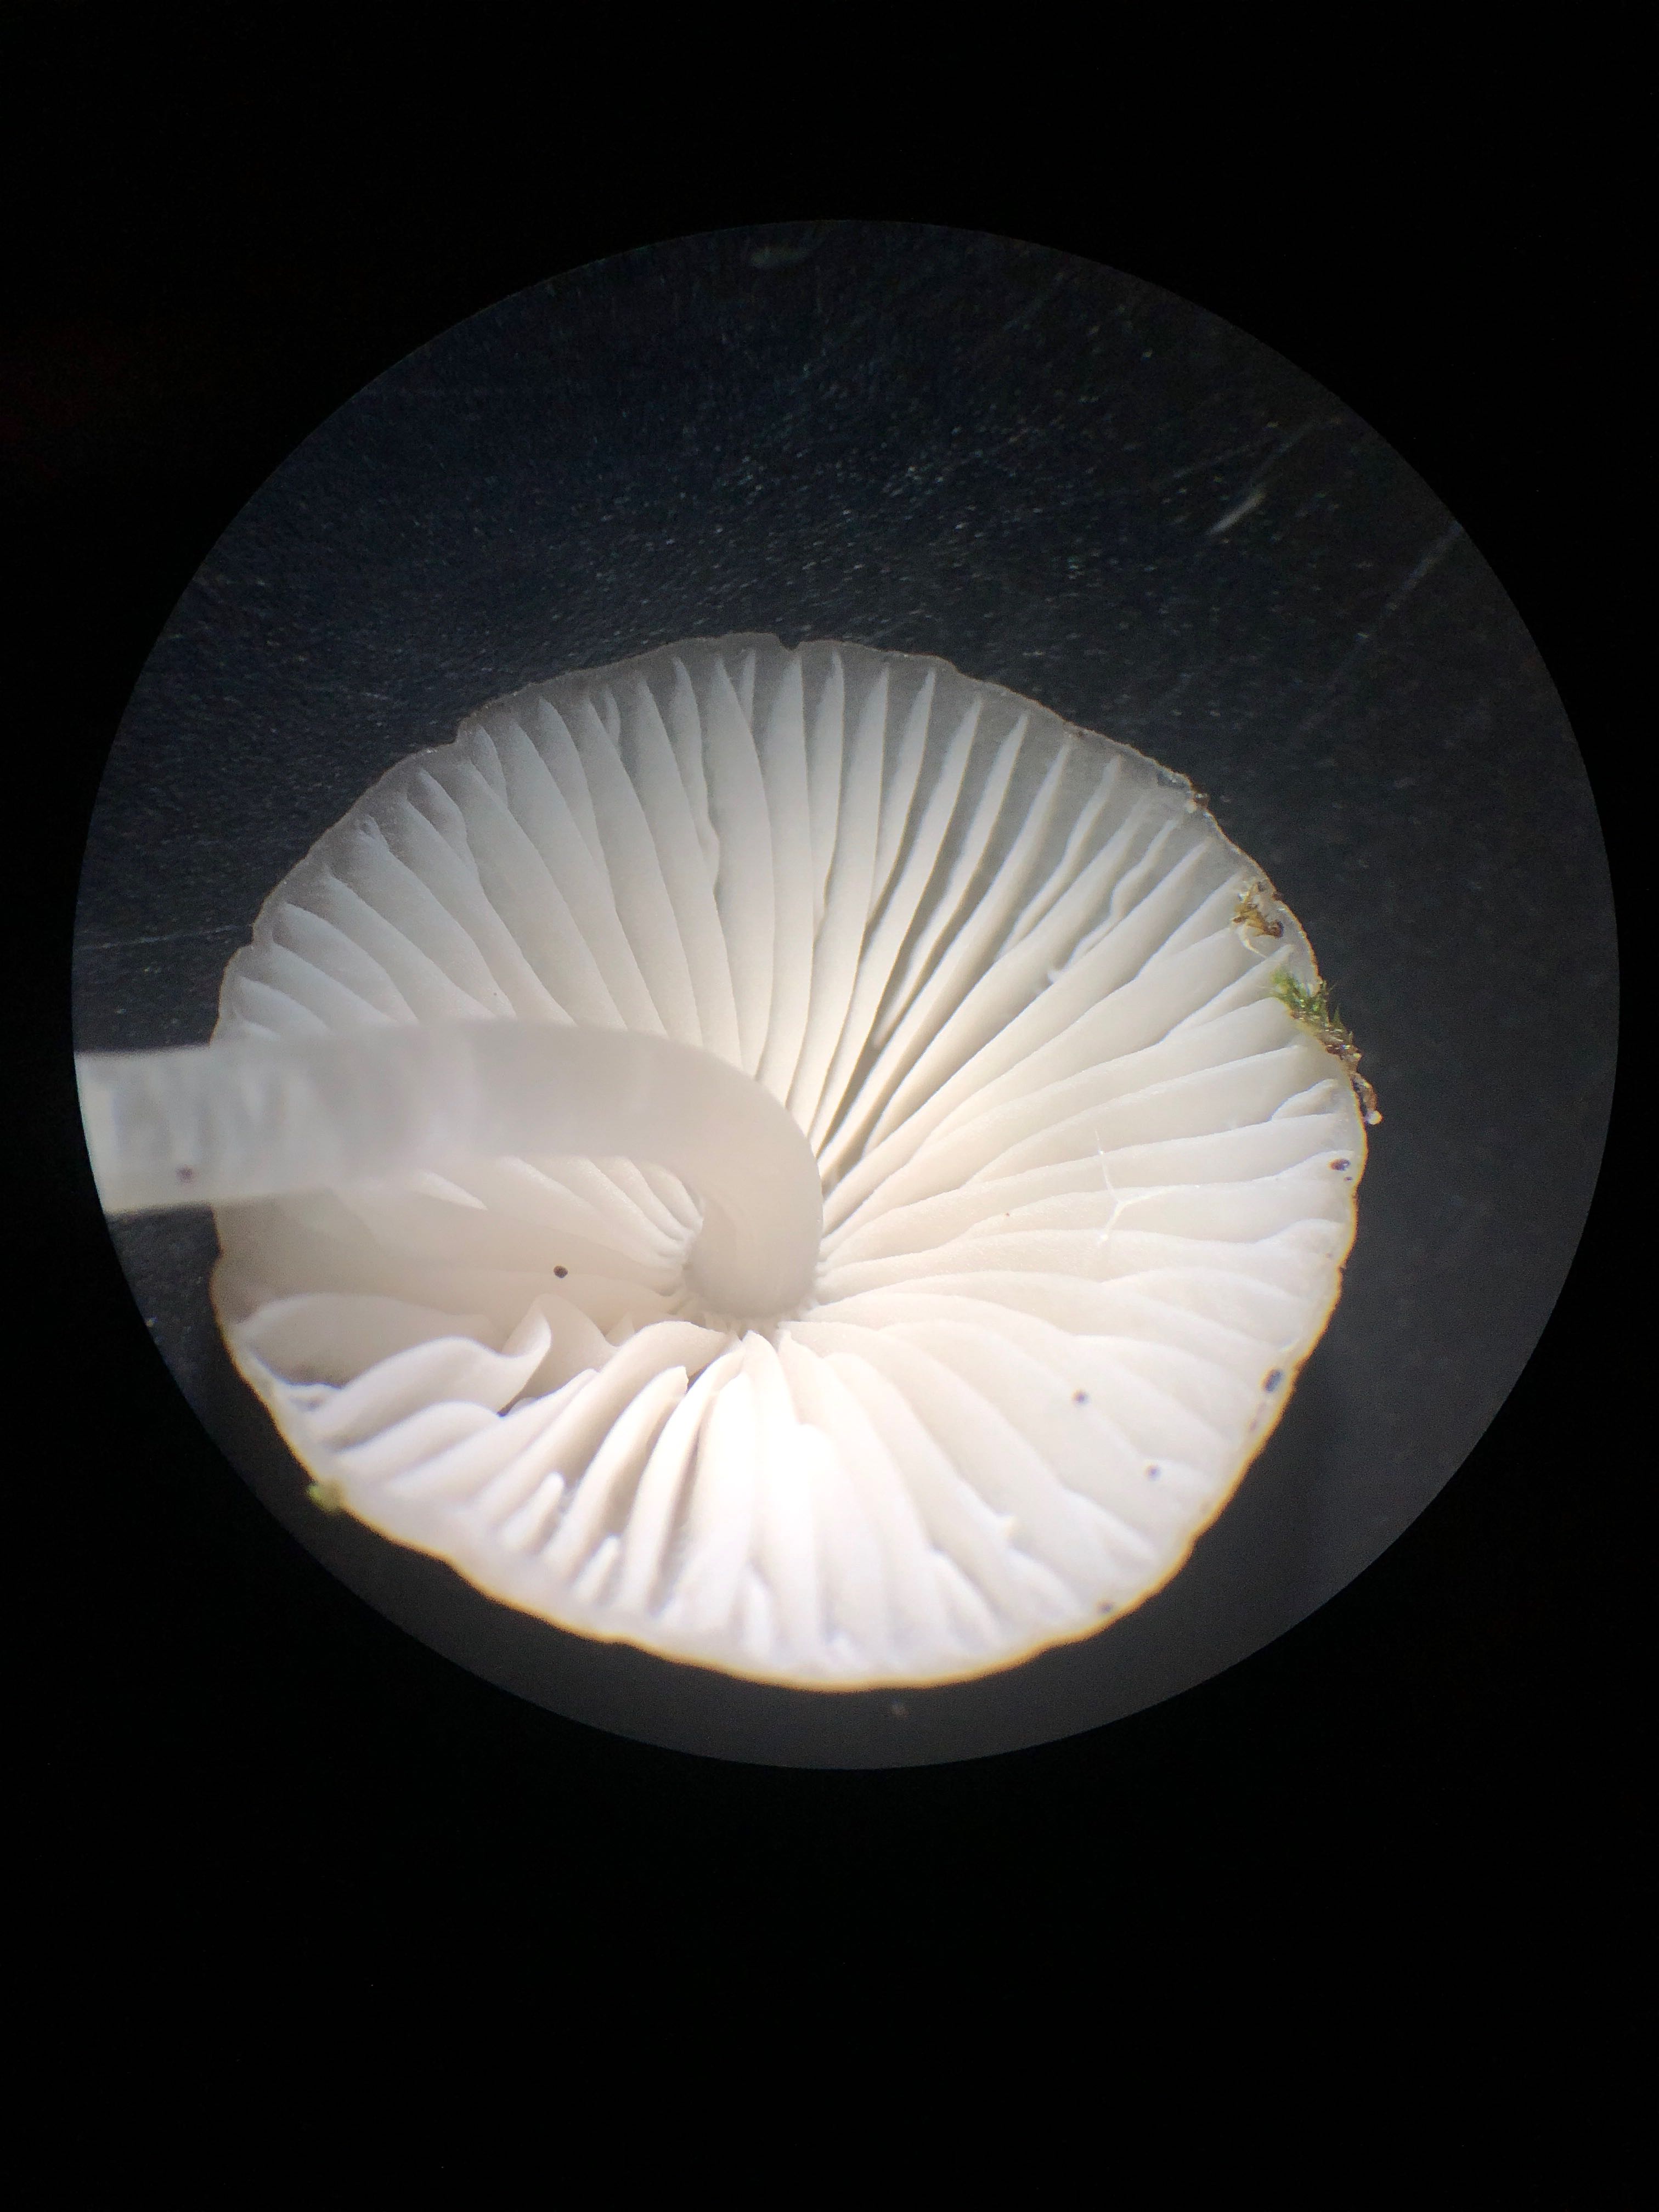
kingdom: Fungi
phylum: Basidiomycota
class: Agaricomycetes
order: Agaricales
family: Mycenaceae
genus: Mycena
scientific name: Mycena vitilis
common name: blankstokket huesvamp
